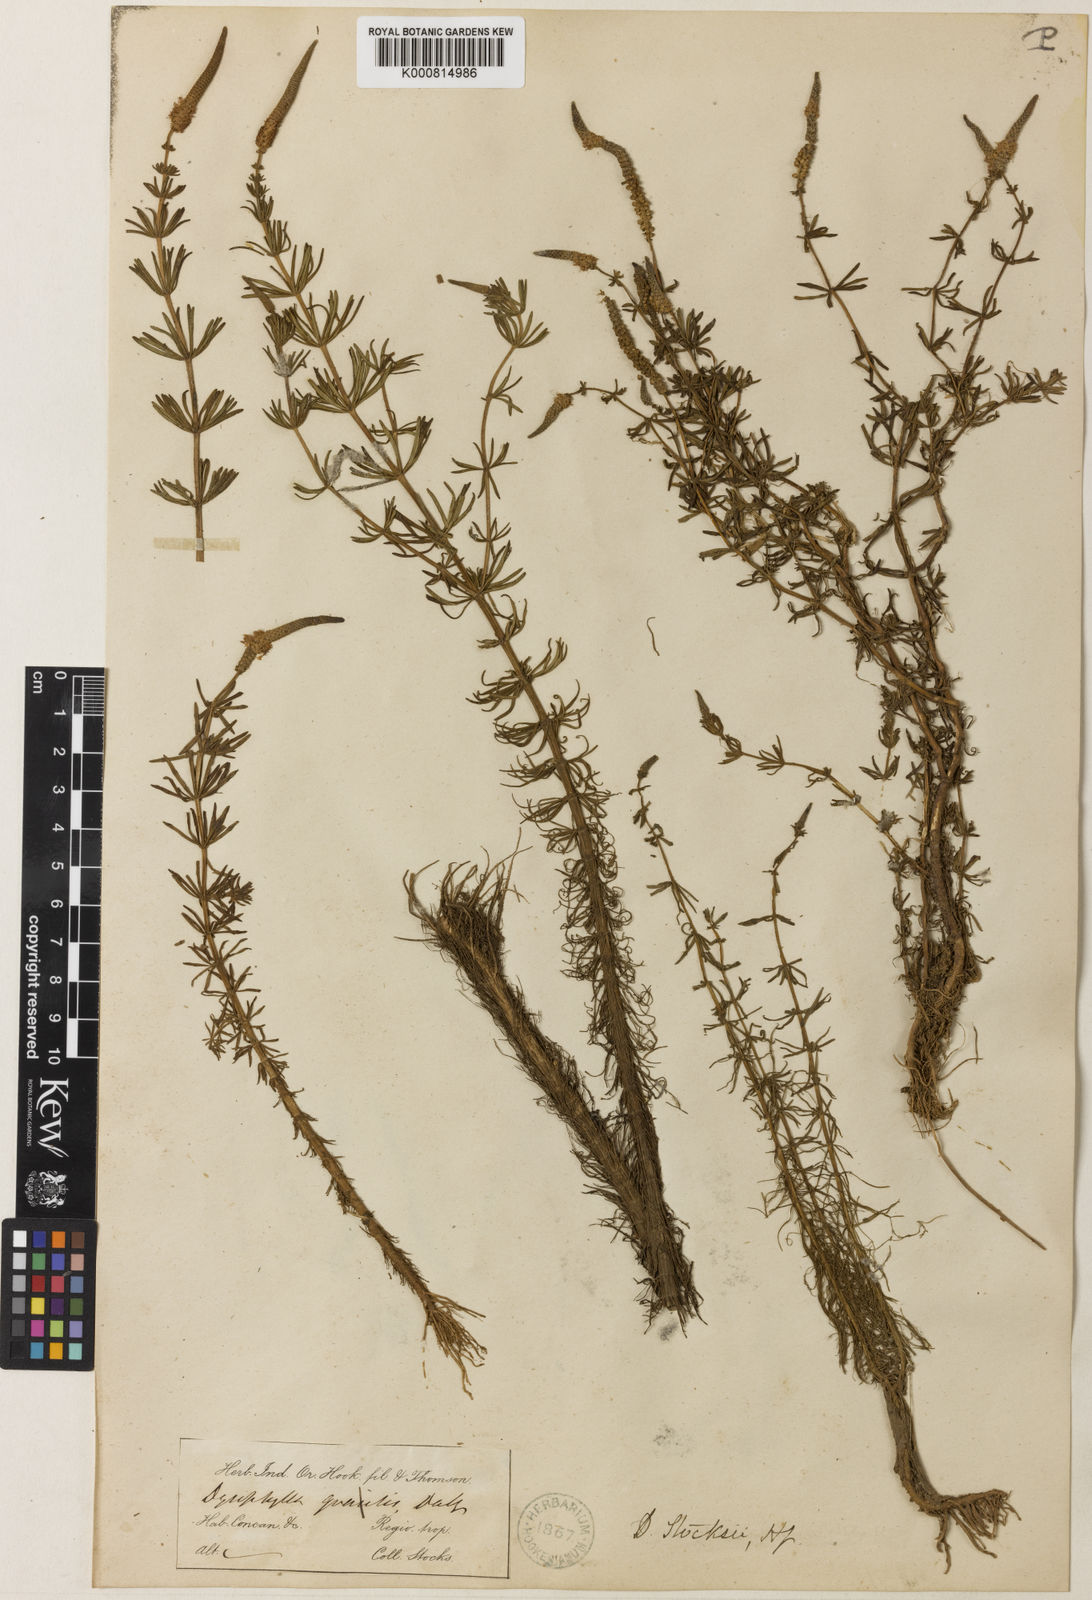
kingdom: Plantae
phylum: Tracheophyta
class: Magnoliopsida
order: Lamiales
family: Lamiaceae
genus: Pogostemon
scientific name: Pogostemon stocksii
